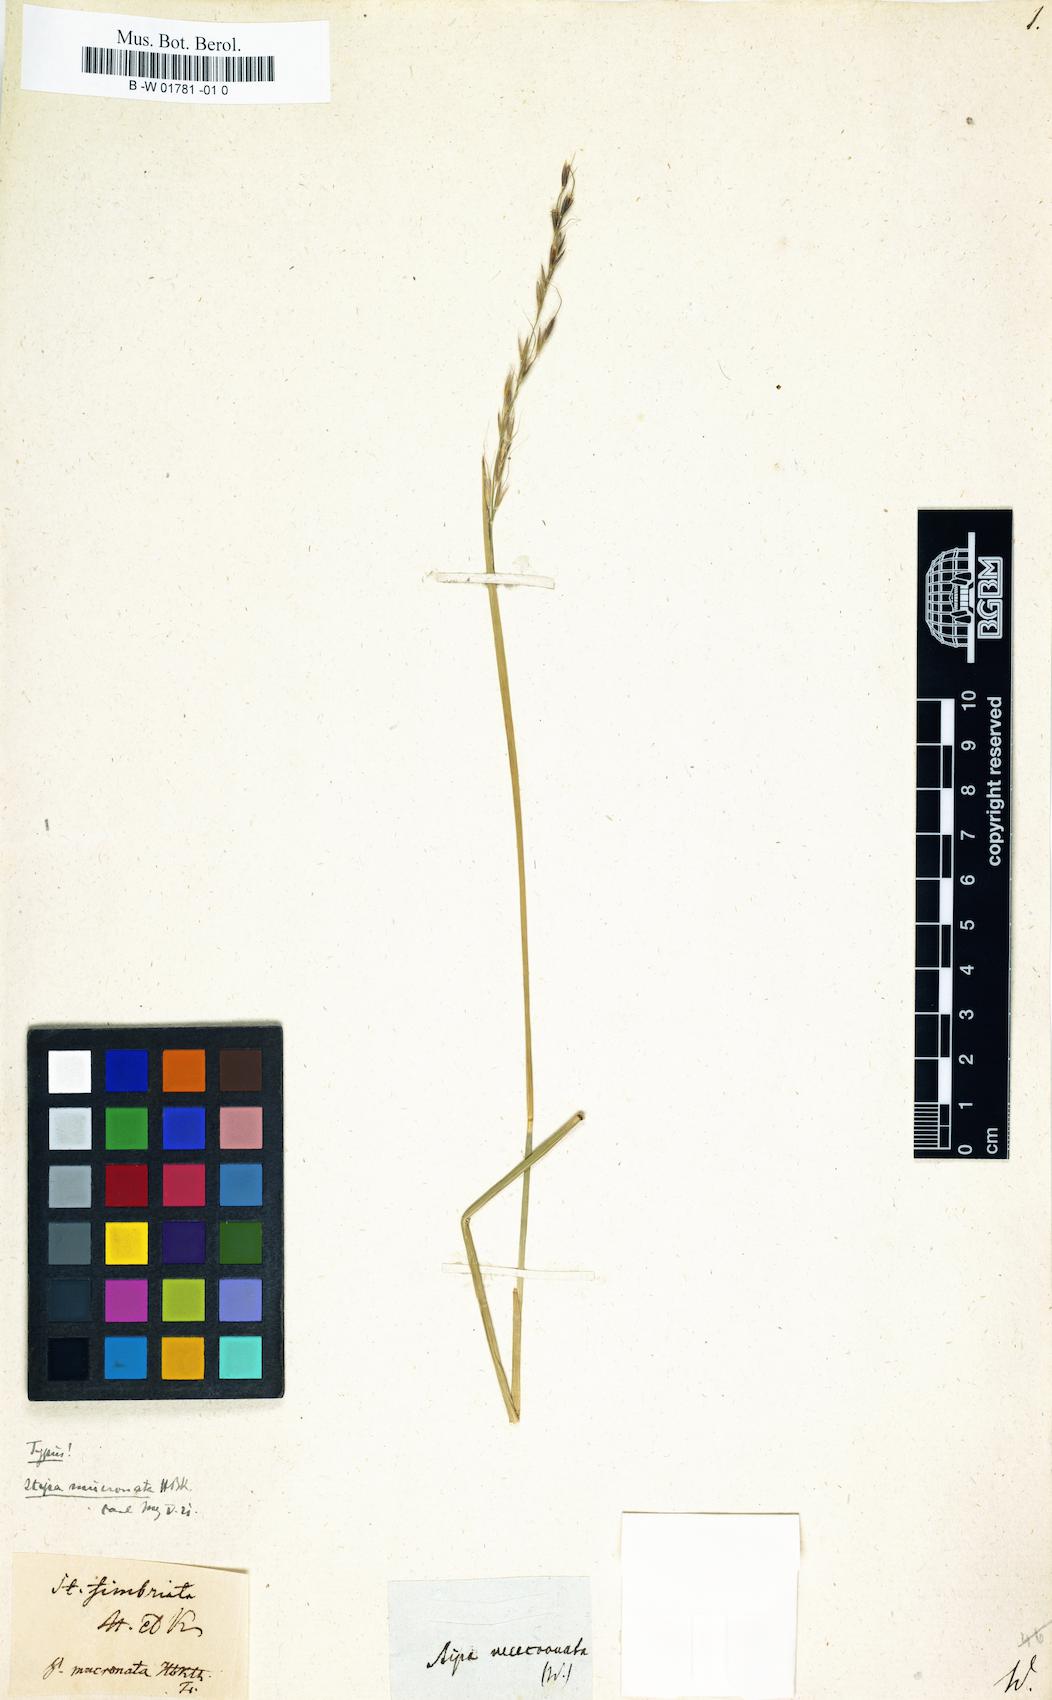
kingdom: Plantae
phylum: Tracheophyta
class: Liliopsida
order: Poales
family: Poaceae
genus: Nassella
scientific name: Nassella mucronata
